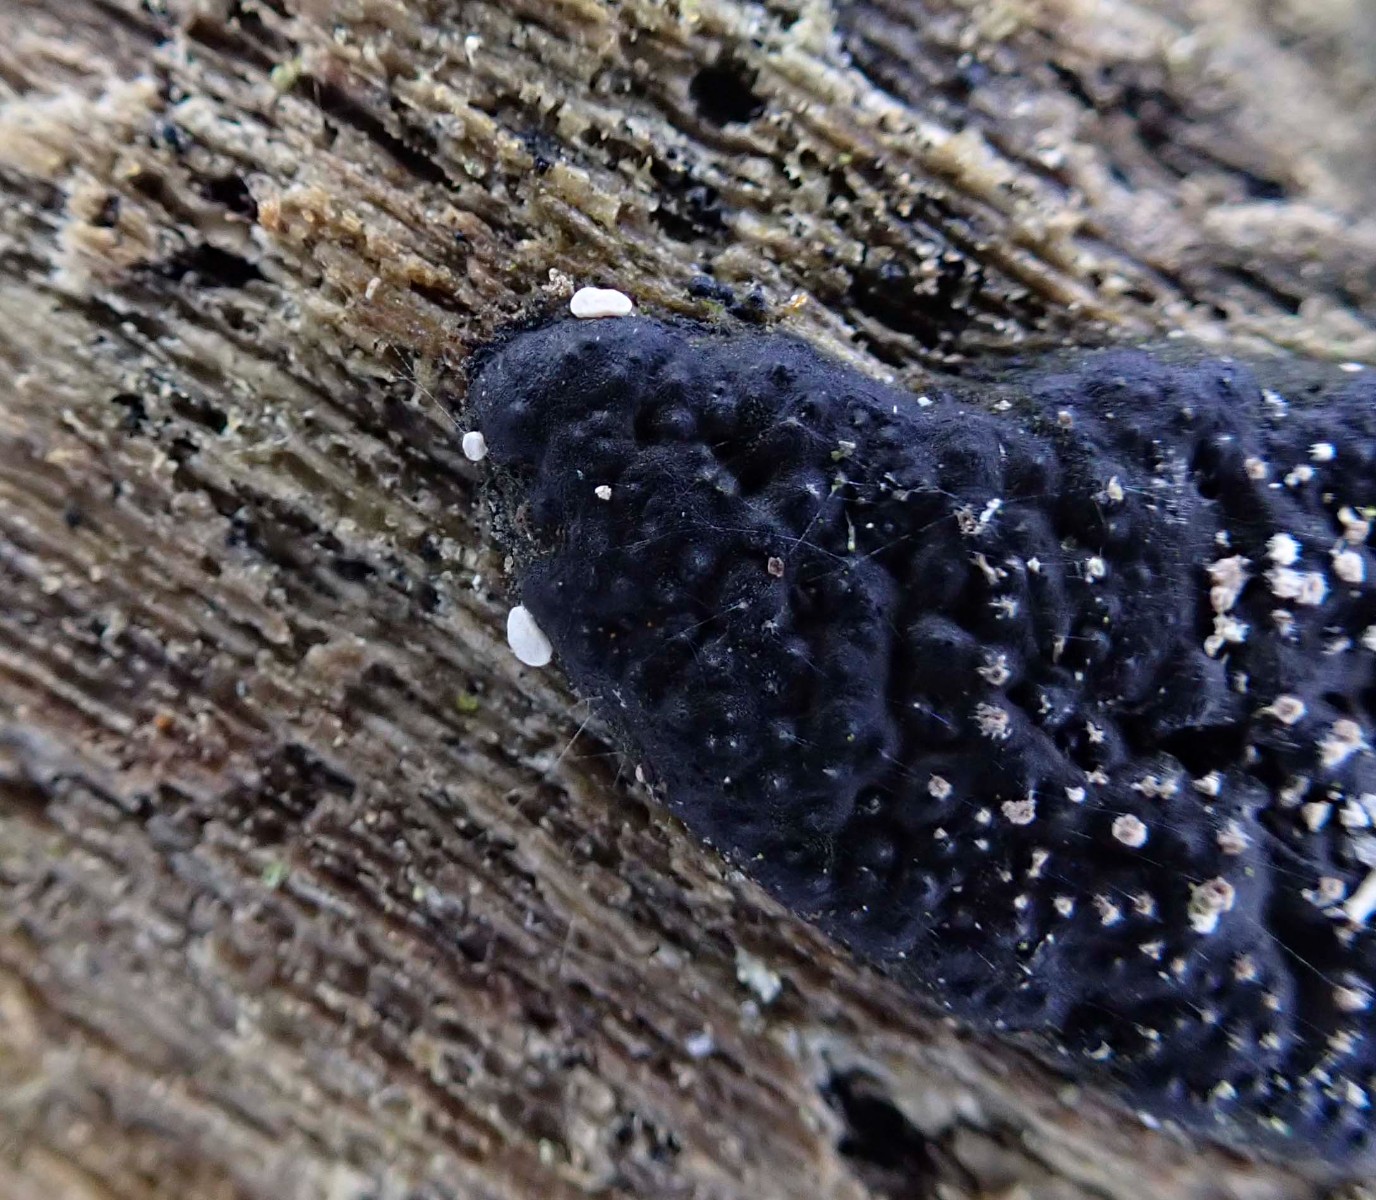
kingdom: Fungi
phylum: Ascomycota
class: Leotiomycetes
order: Helotiales
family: Hyaloscyphaceae
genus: Polydesmia
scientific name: Polydesmia pruinosa
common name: dunskive
